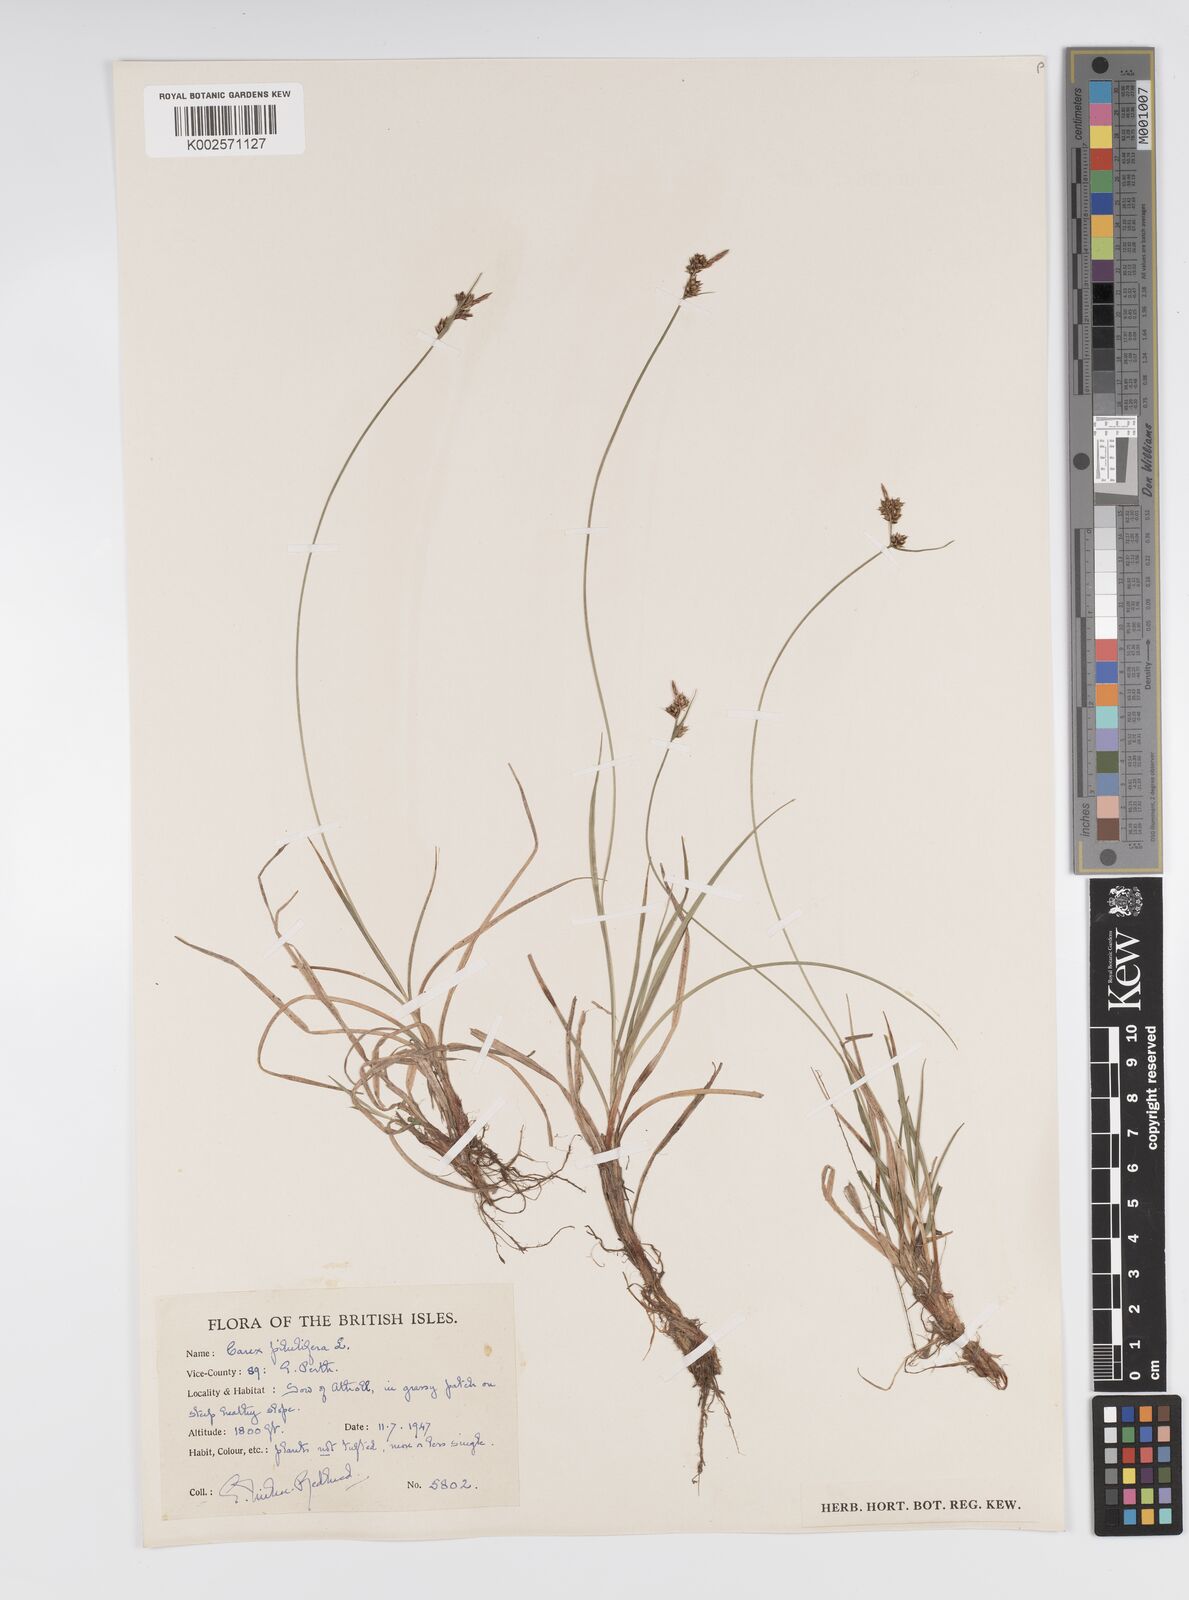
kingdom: Plantae
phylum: Tracheophyta
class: Liliopsida
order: Poales
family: Cyperaceae
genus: Carex
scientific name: Carex pilulifera
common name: Pill sedge
